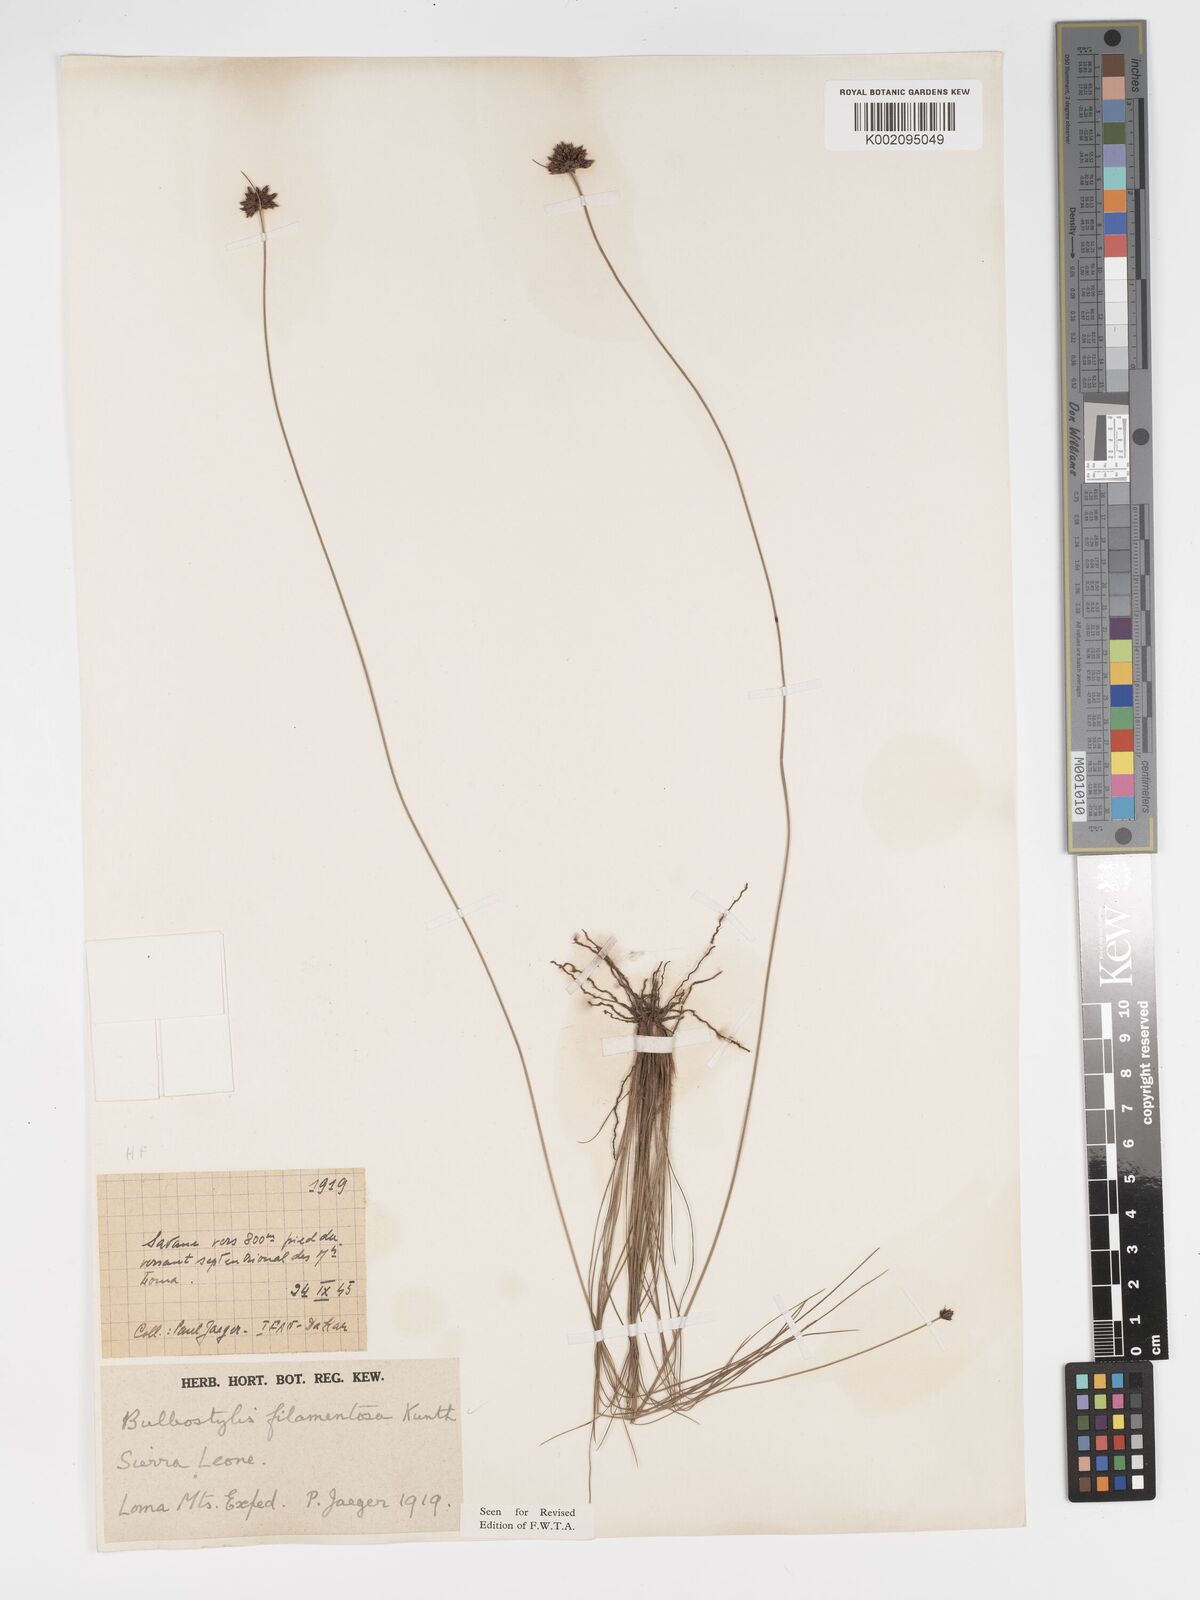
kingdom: Plantae
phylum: Tracheophyta
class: Liliopsida
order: Poales
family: Cyperaceae
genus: Bulbostylis
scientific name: Bulbostylis scabricaulis
